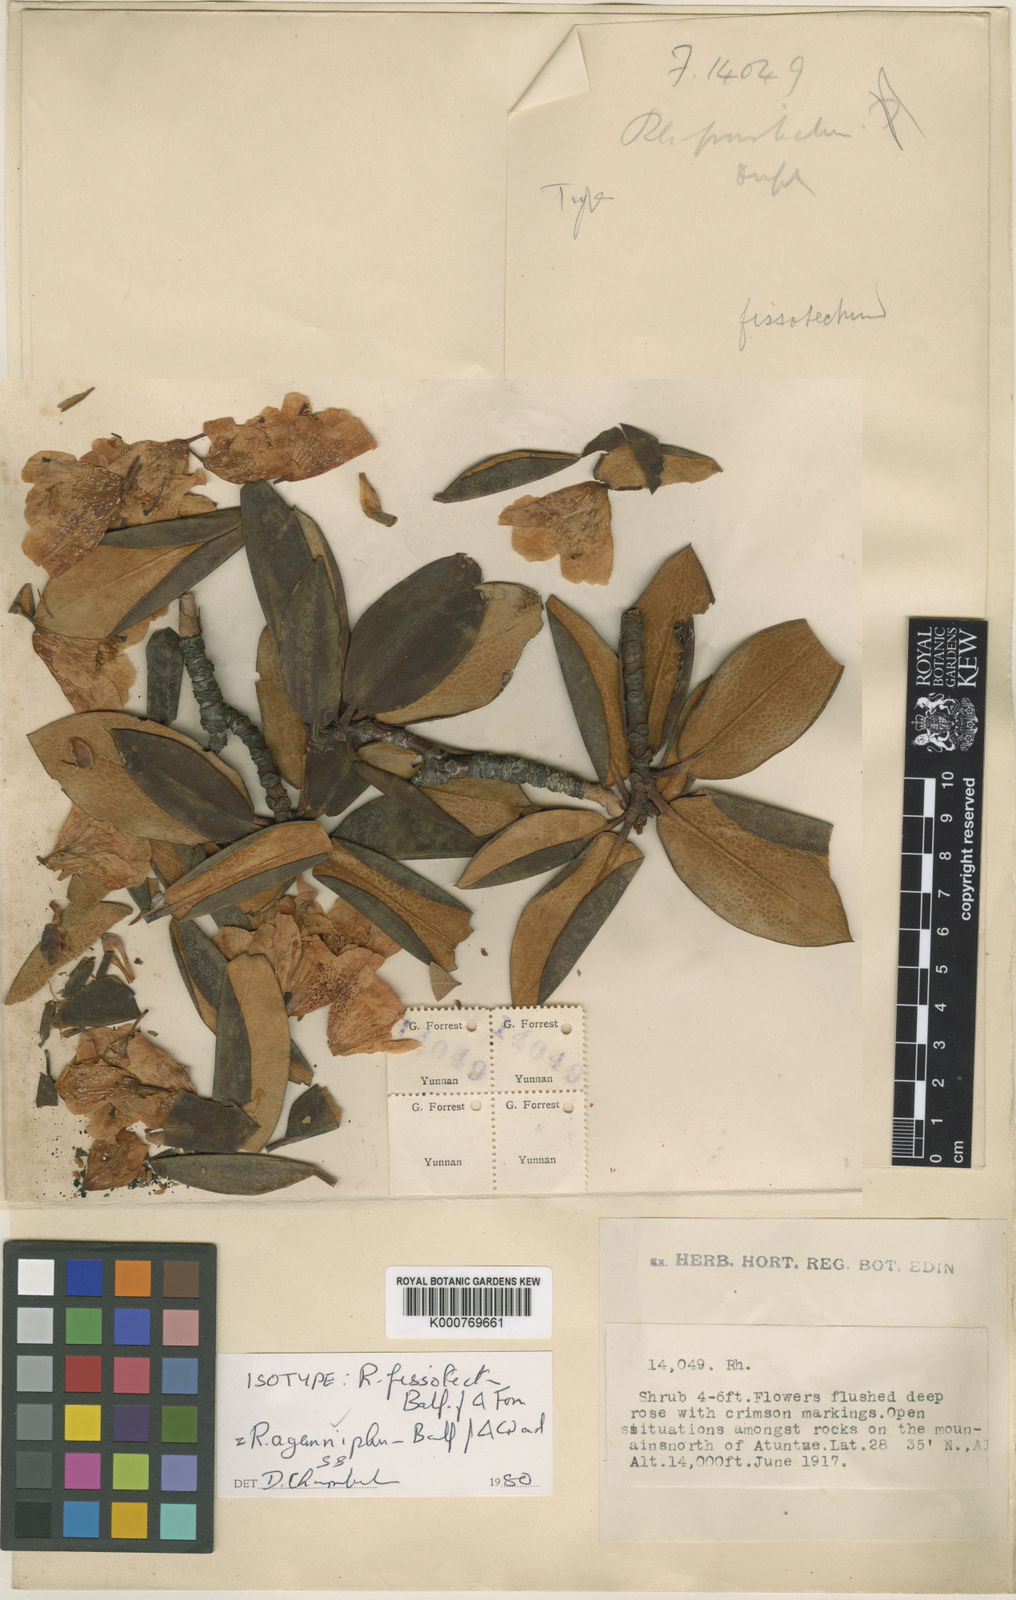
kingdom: Plantae
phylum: Tracheophyta
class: Magnoliopsida
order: Ericales
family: Ericaceae
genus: Rhododendron
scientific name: Rhododendron aganniphum
